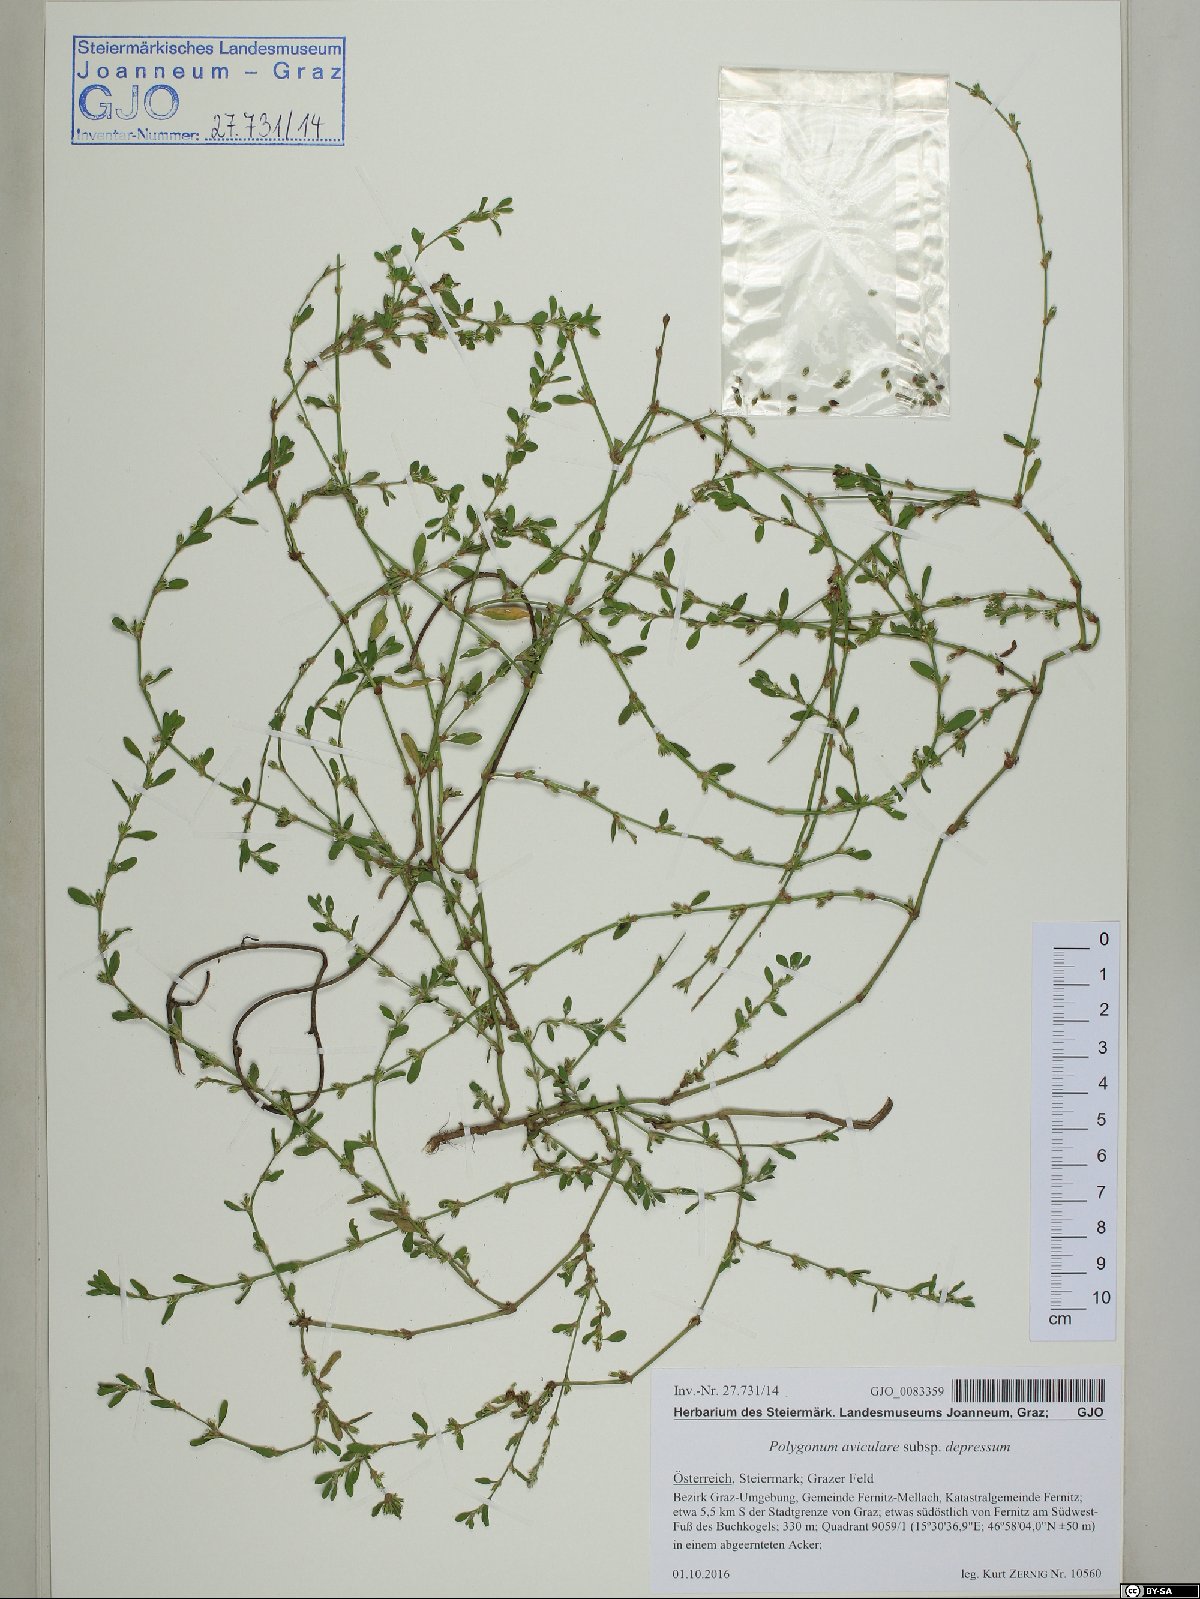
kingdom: Plantae
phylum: Tracheophyta
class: Magnoliopsida
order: Caryophyllales
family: Polygonaceae
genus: Polygonum
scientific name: Polygonum arenastrum
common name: Equal-leaved knotgrass
